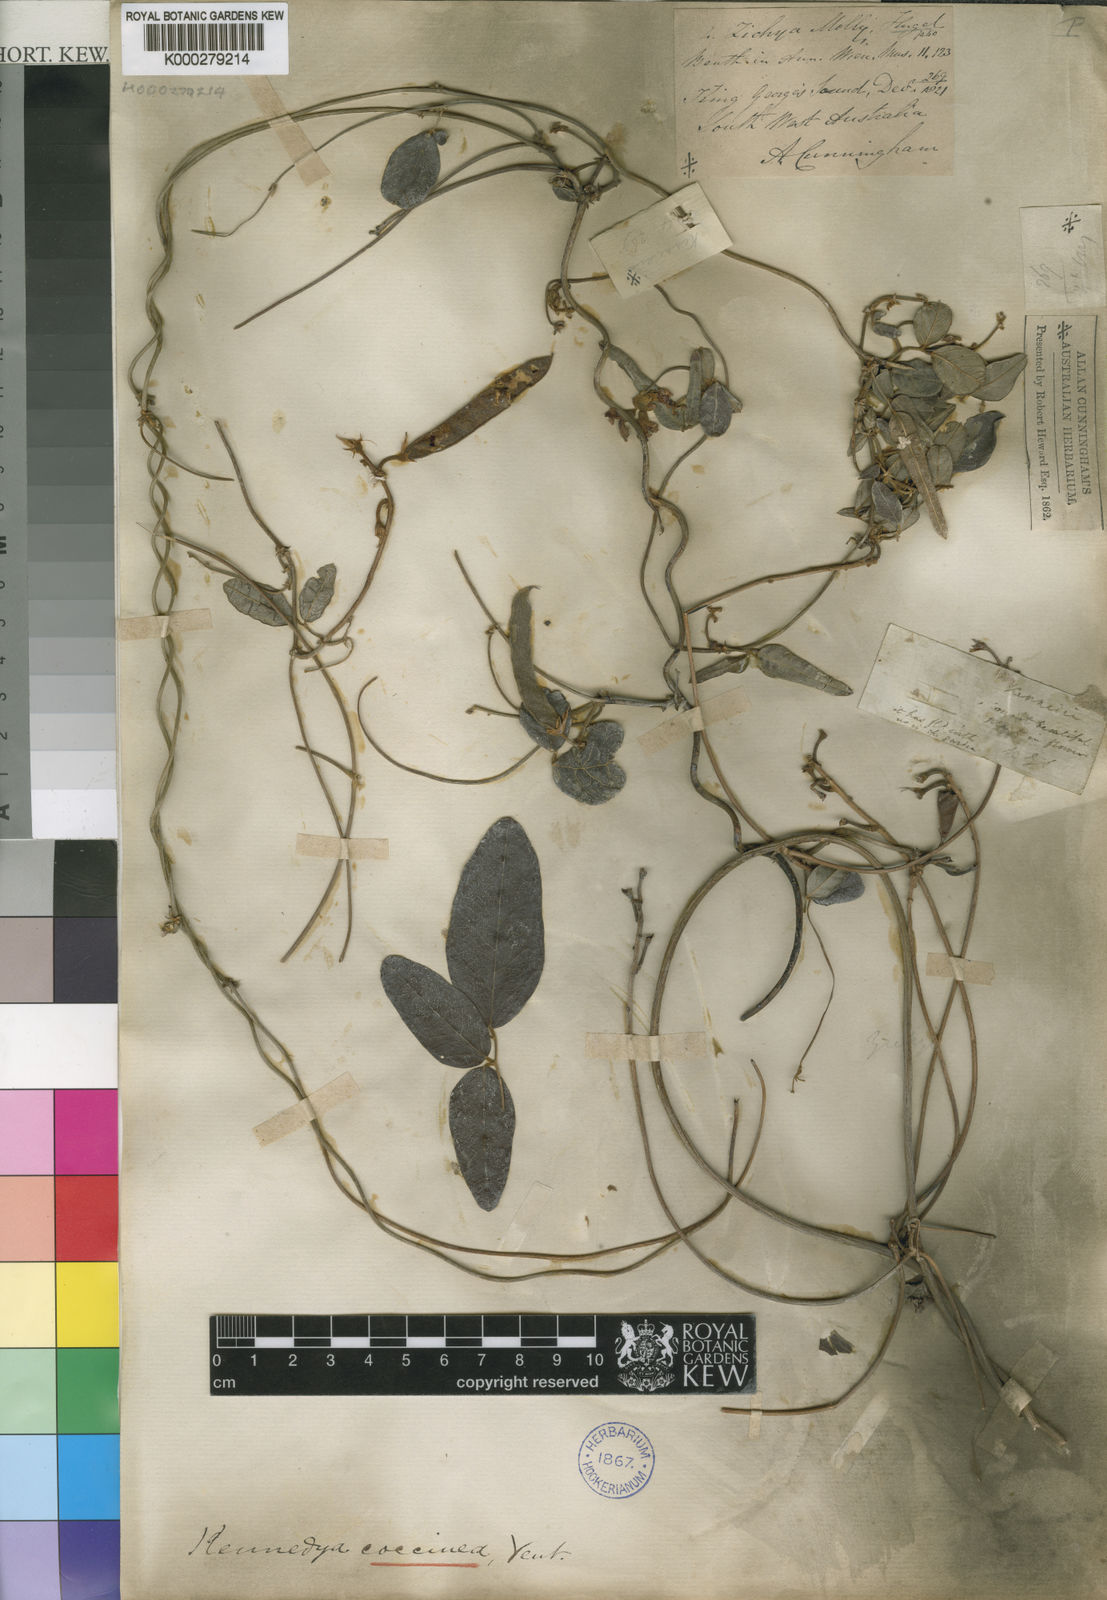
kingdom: Plantae
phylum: Tracheophyta
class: Magnoliopsida
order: Fabales
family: Fabaceae
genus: Kennedia
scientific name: Kennedia coccinea
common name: Coralvine
